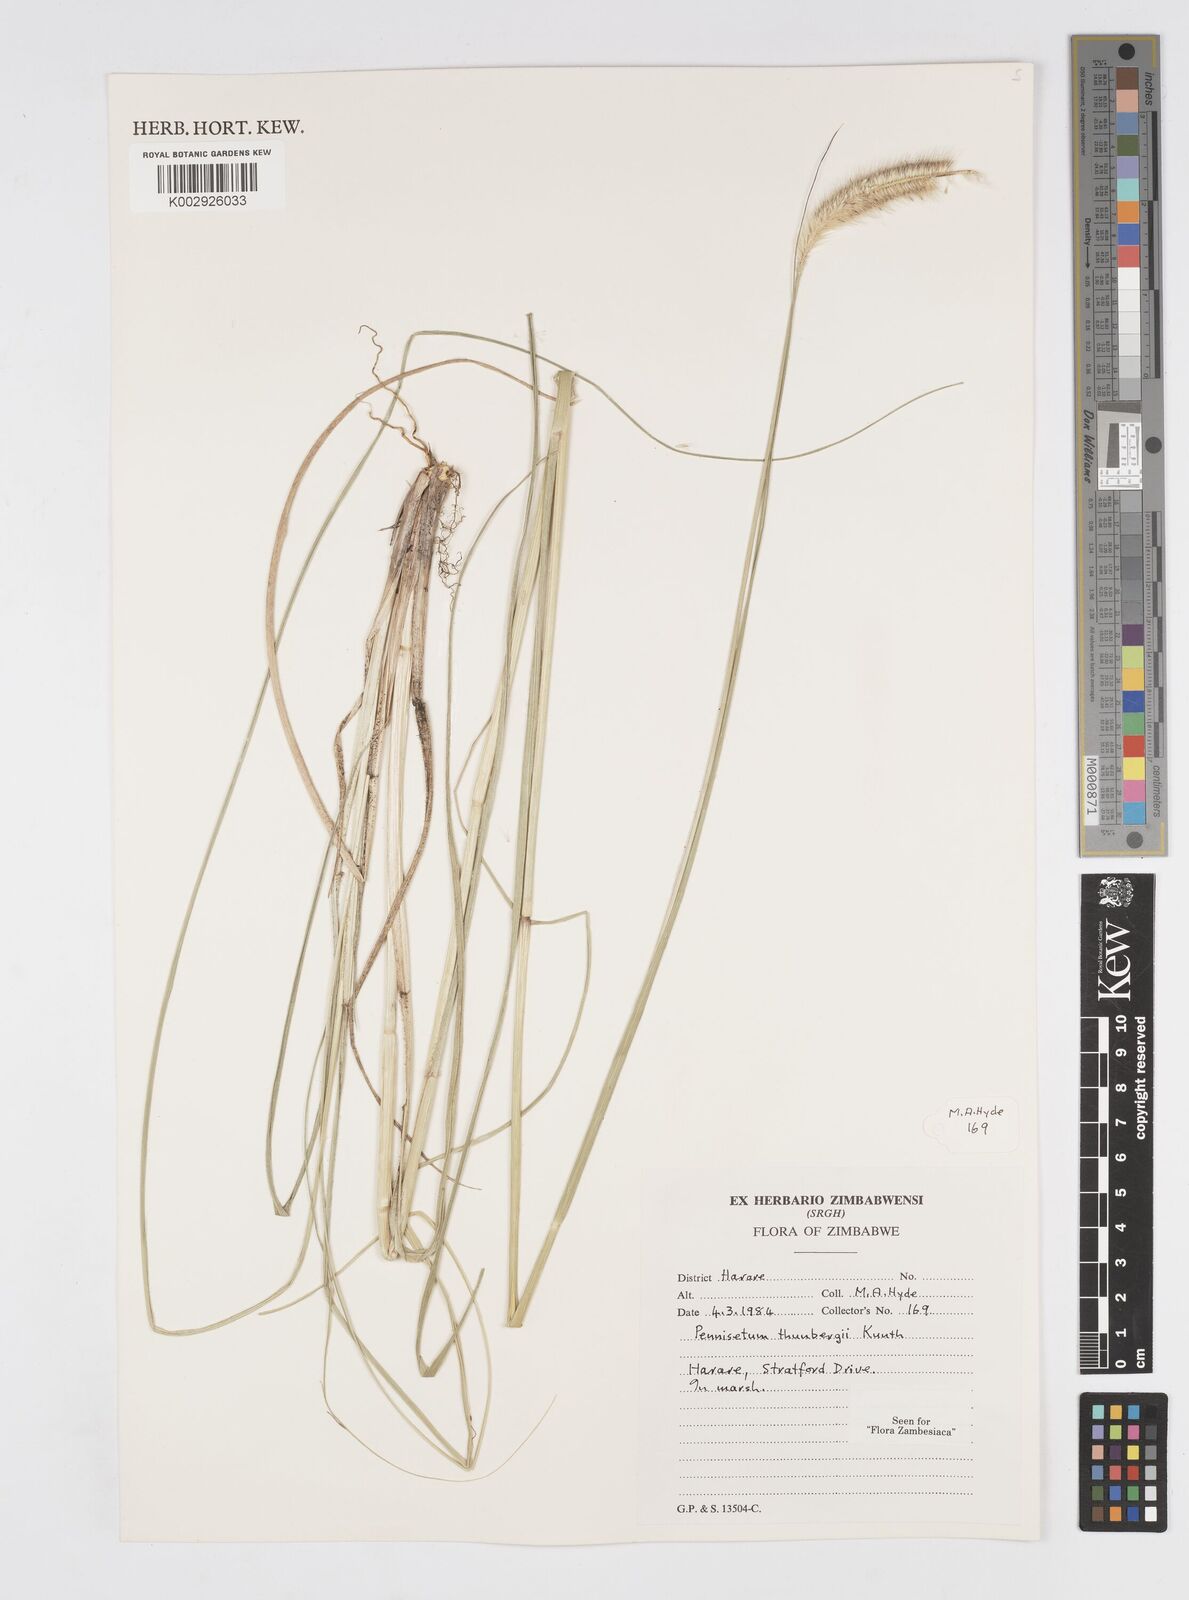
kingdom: Plantae
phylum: Tracheophyta
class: Liliopsida
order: Poales
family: Poaceae
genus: Cenchrus
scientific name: Cenchrus geniculatus
